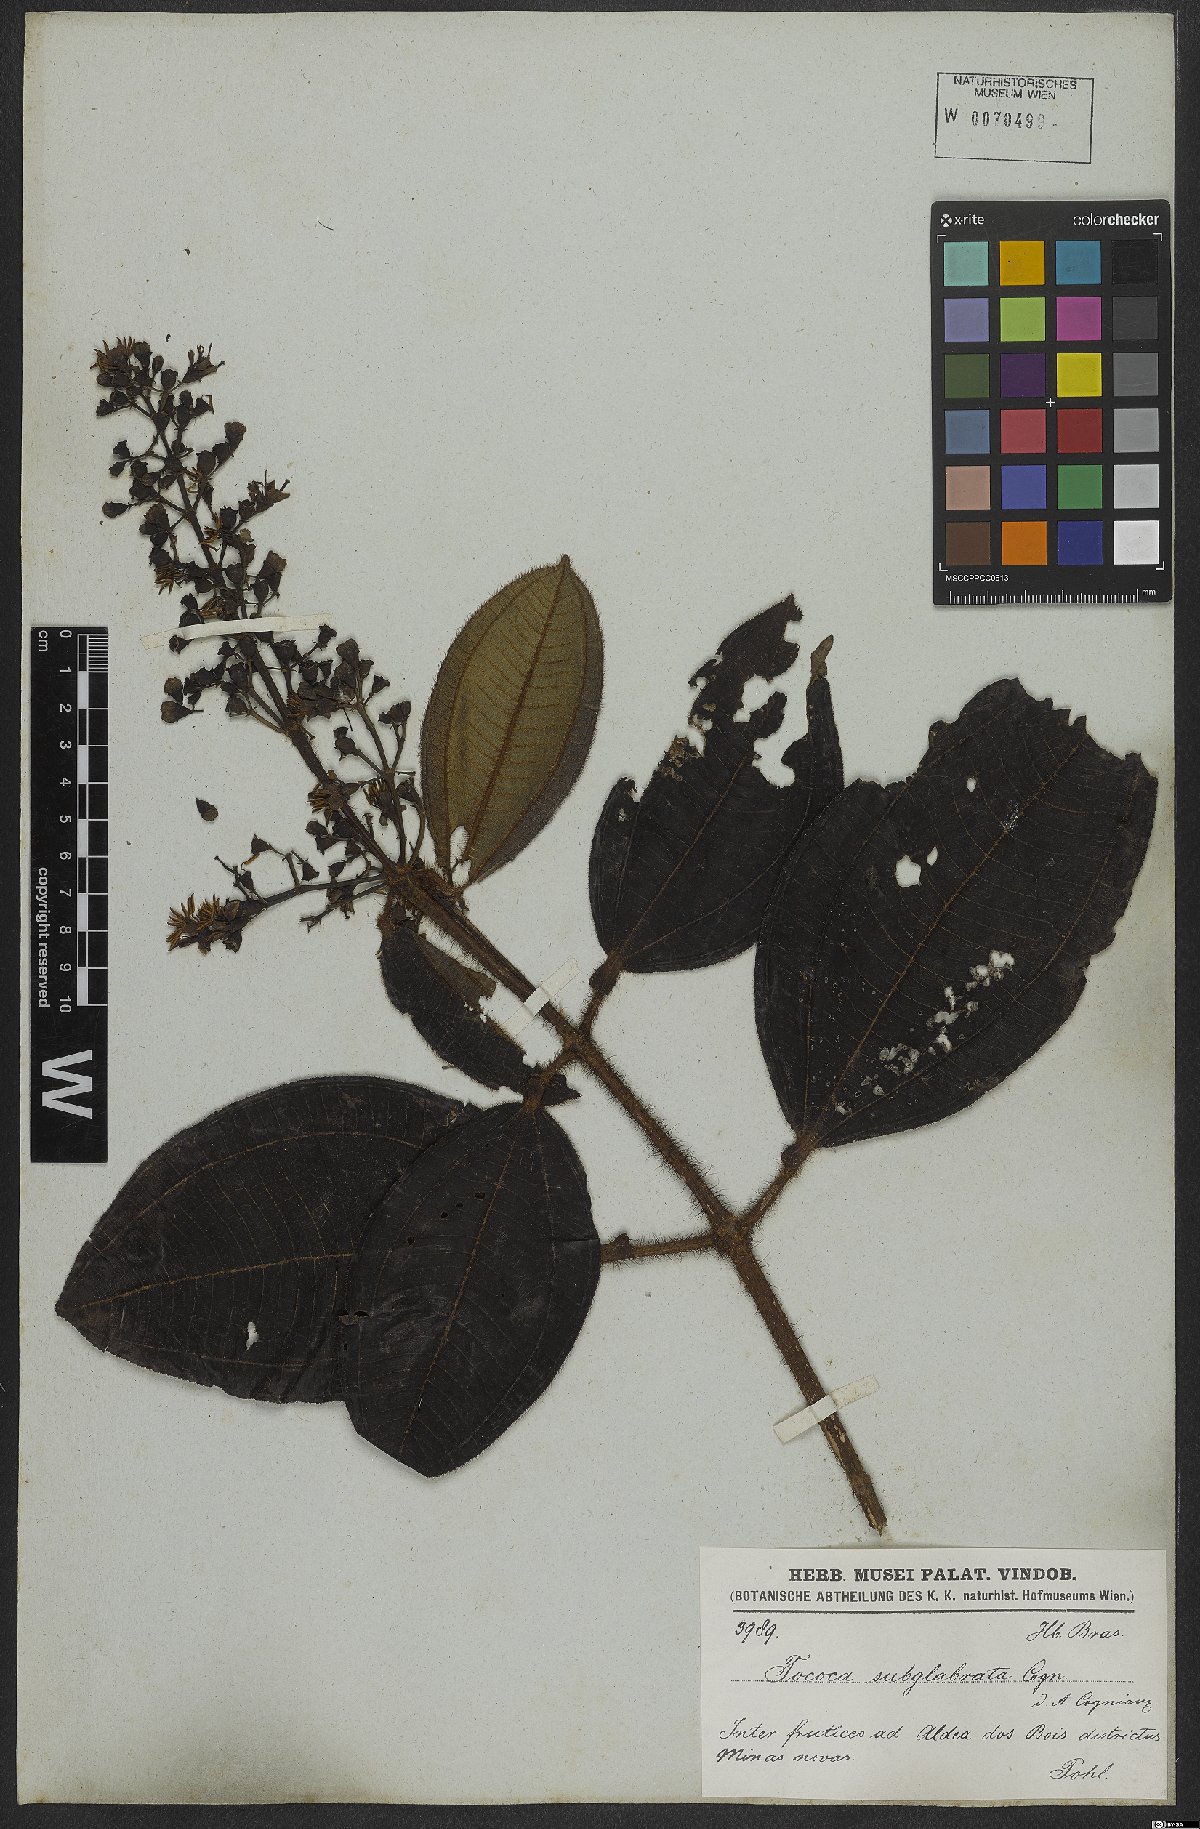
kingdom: Plantae
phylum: Tracheophyta
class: Magnoliopsida
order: Myrtales
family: Melastomataceae
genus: Miconia
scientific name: Miconia tococa
